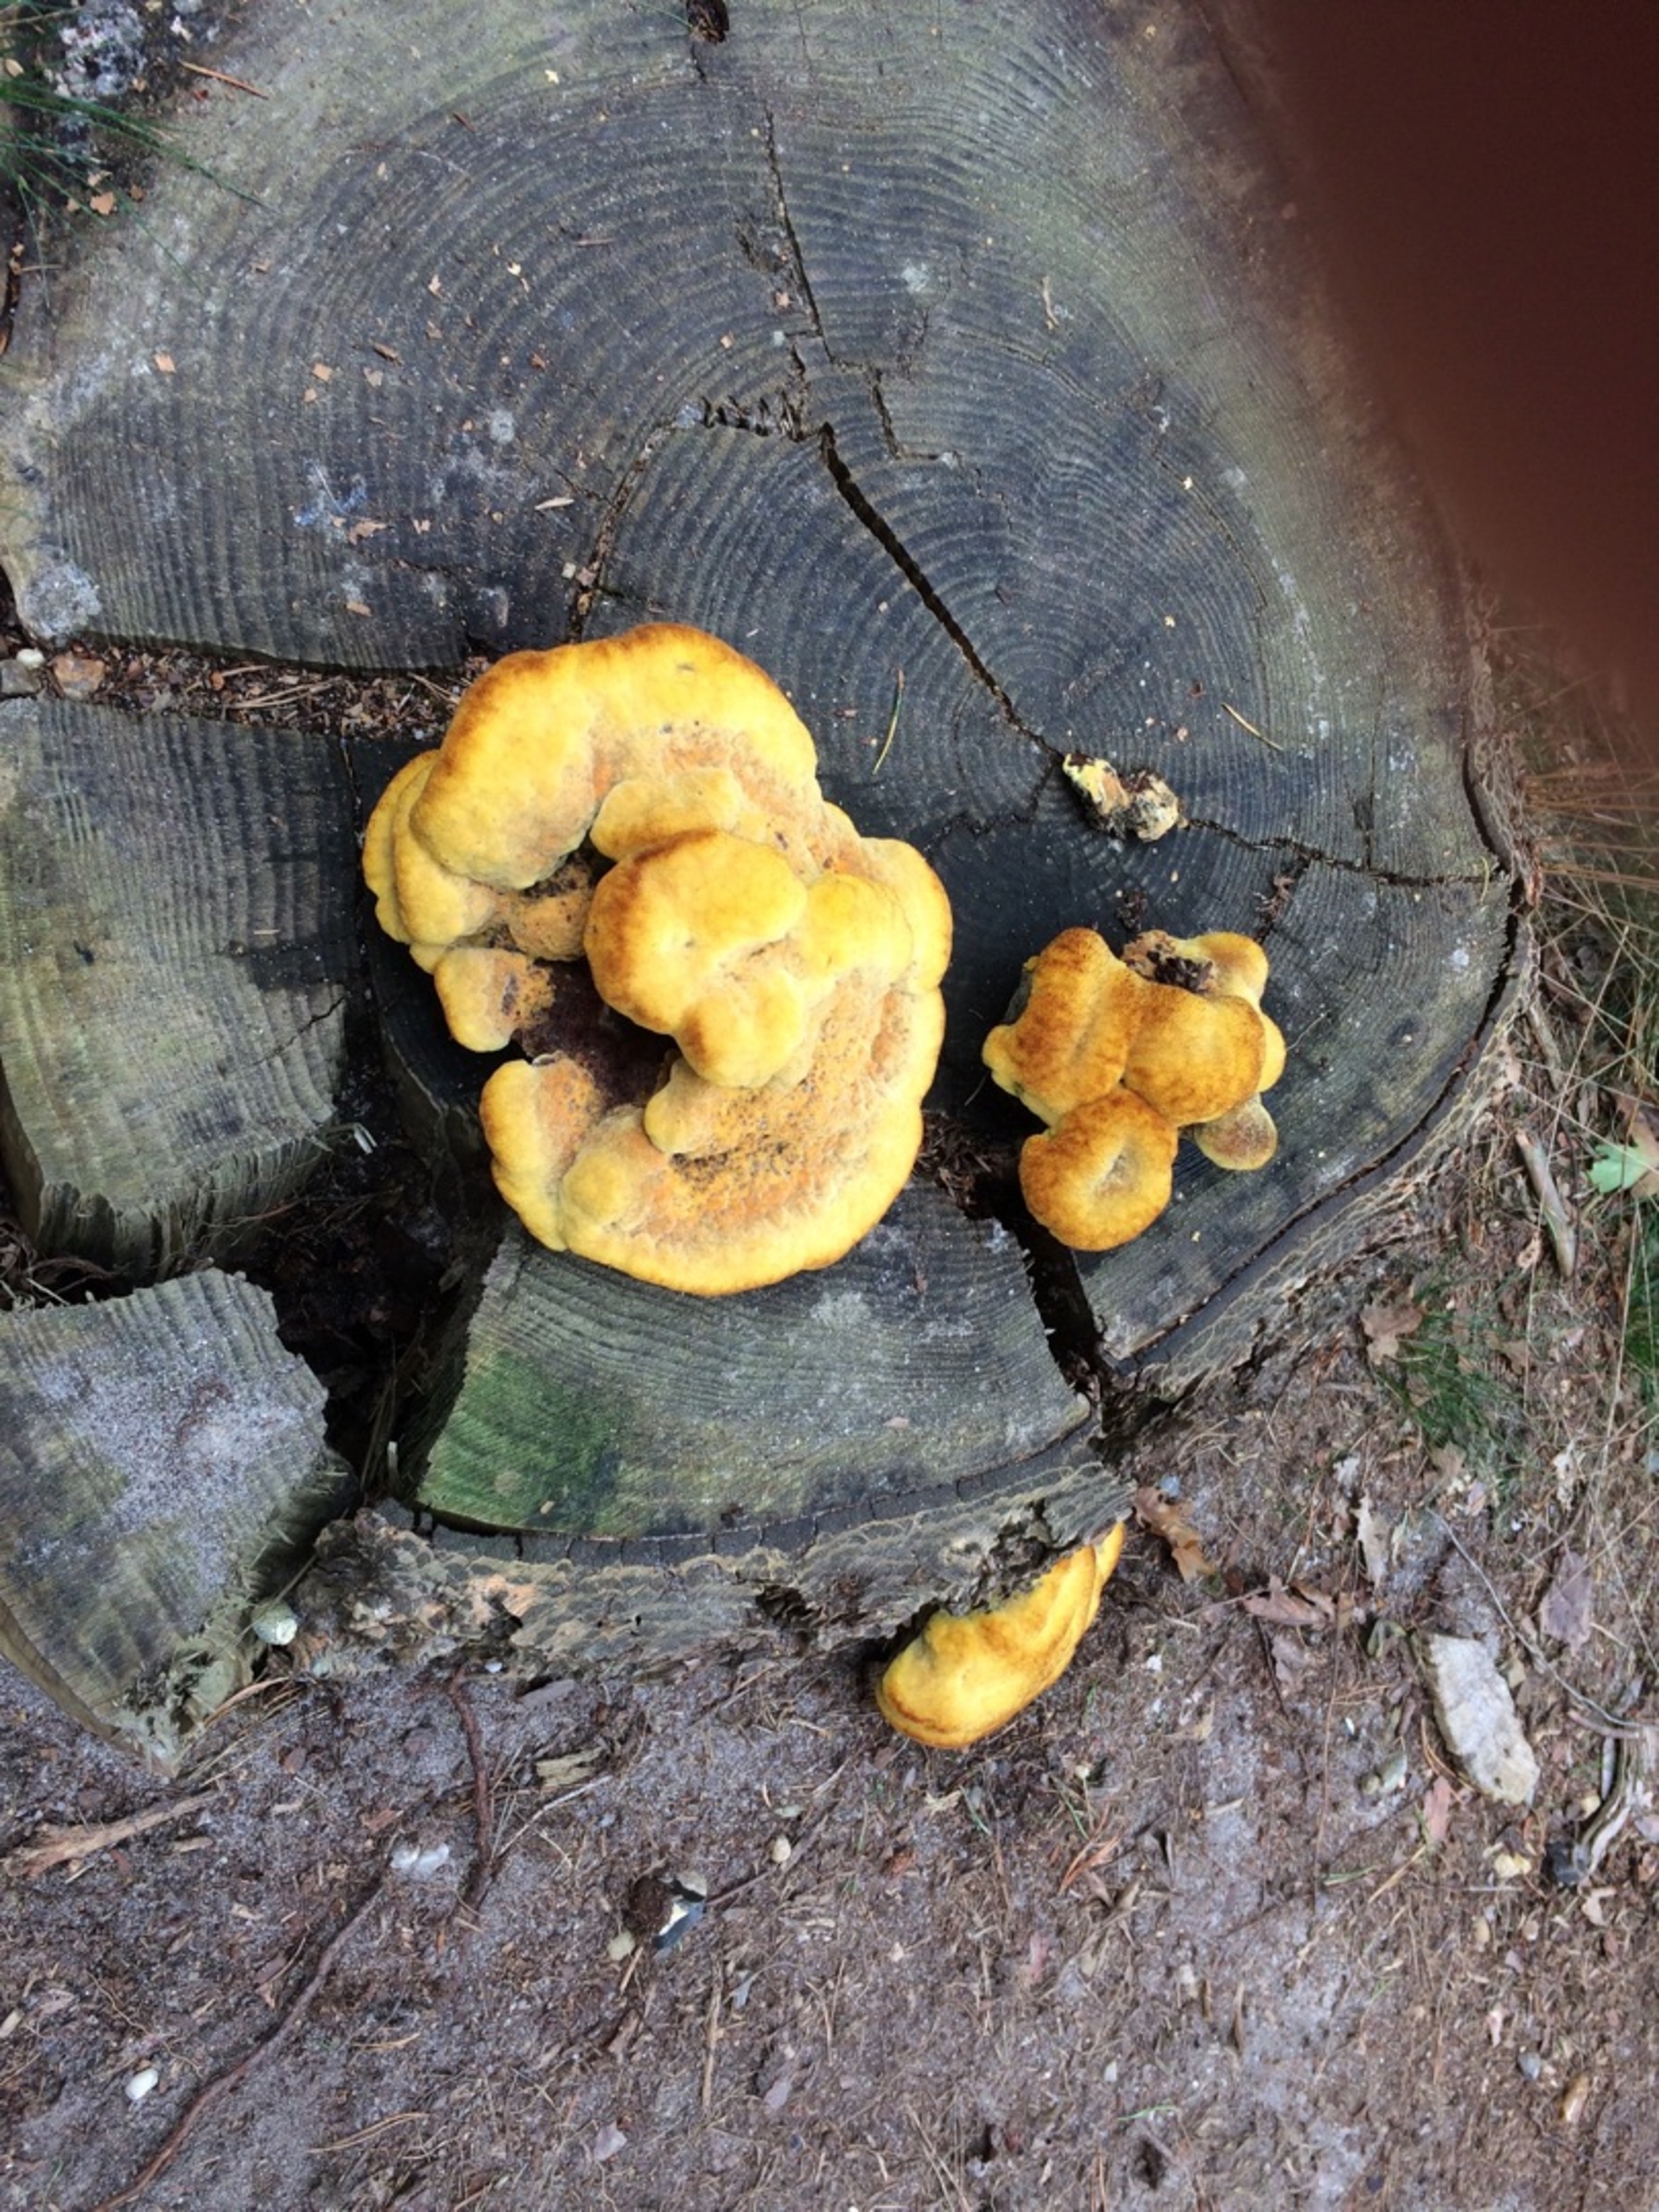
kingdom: Fungi
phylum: Basidiomycota
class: Agaricomycetes
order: Polyporales
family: Laetiporaceae
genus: Phaeolus
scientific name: Phaeolus schweinitzii
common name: Brunporesvamp
